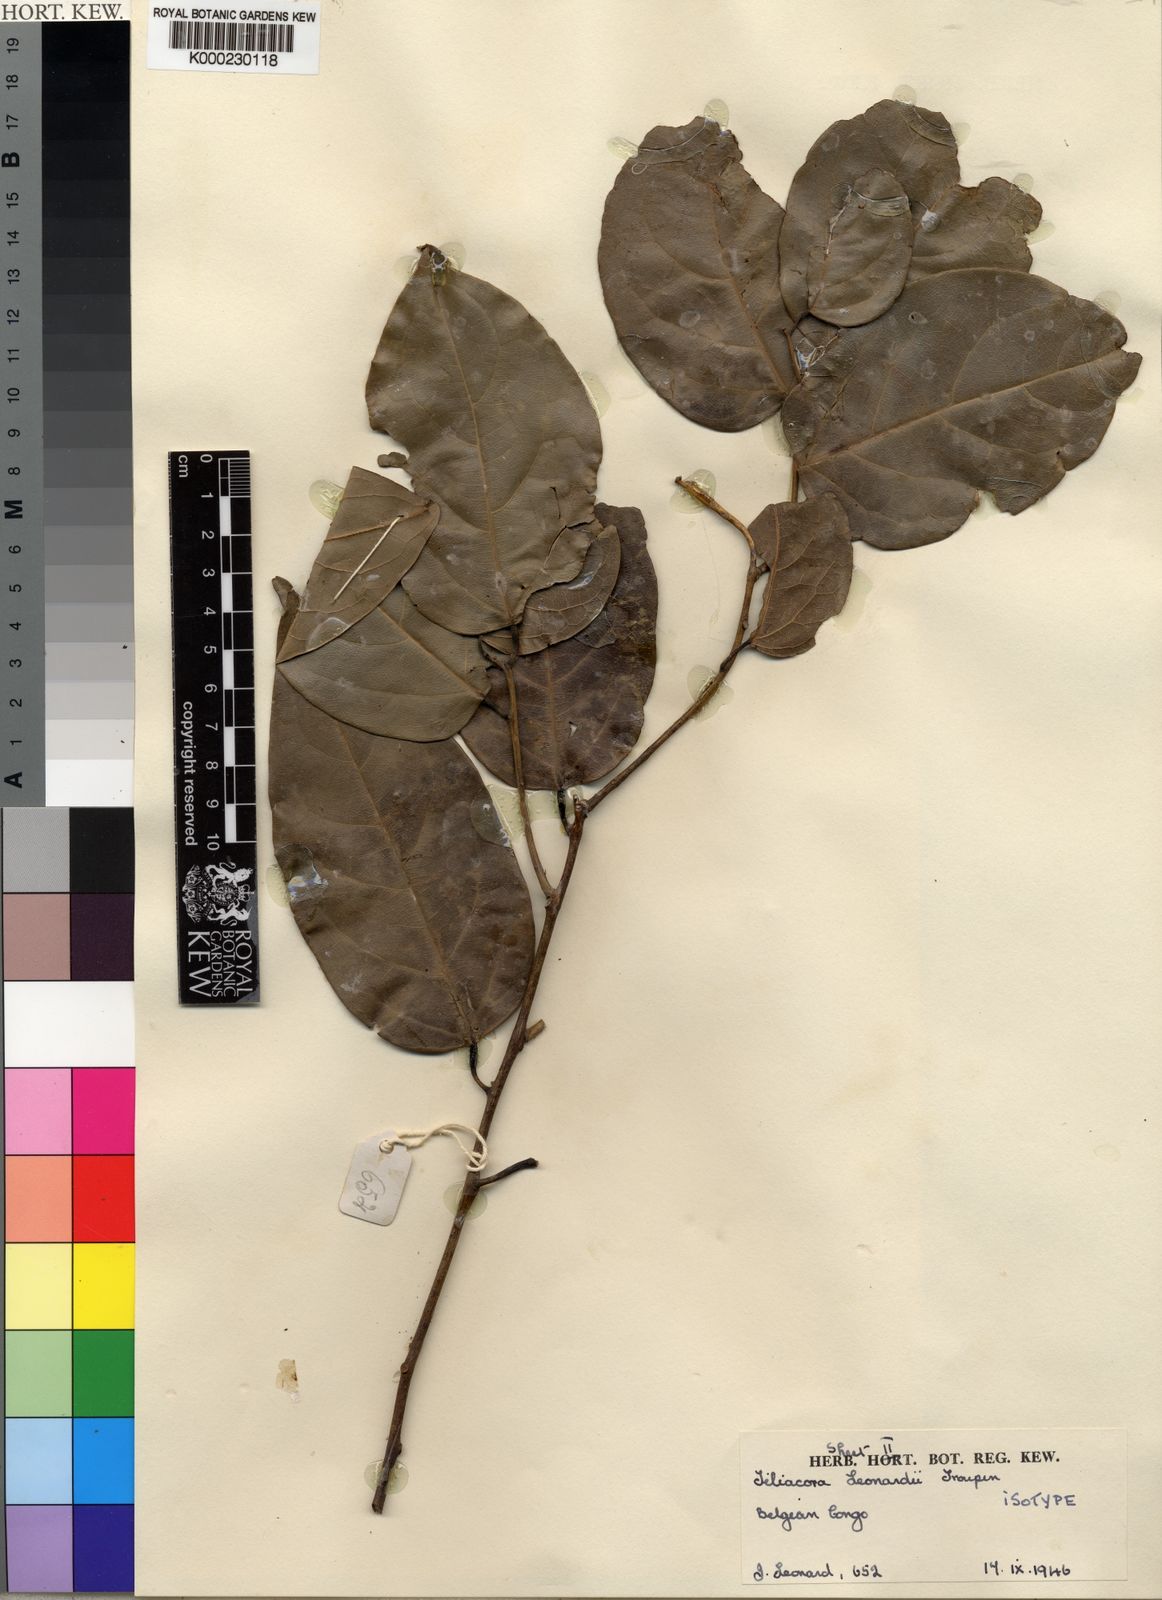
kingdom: Plantae
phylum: Tracheophyta
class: Magnoliopsida
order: Ranunculales
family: Menispermaceae
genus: Tiliacora
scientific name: Tiliacora leonardii
